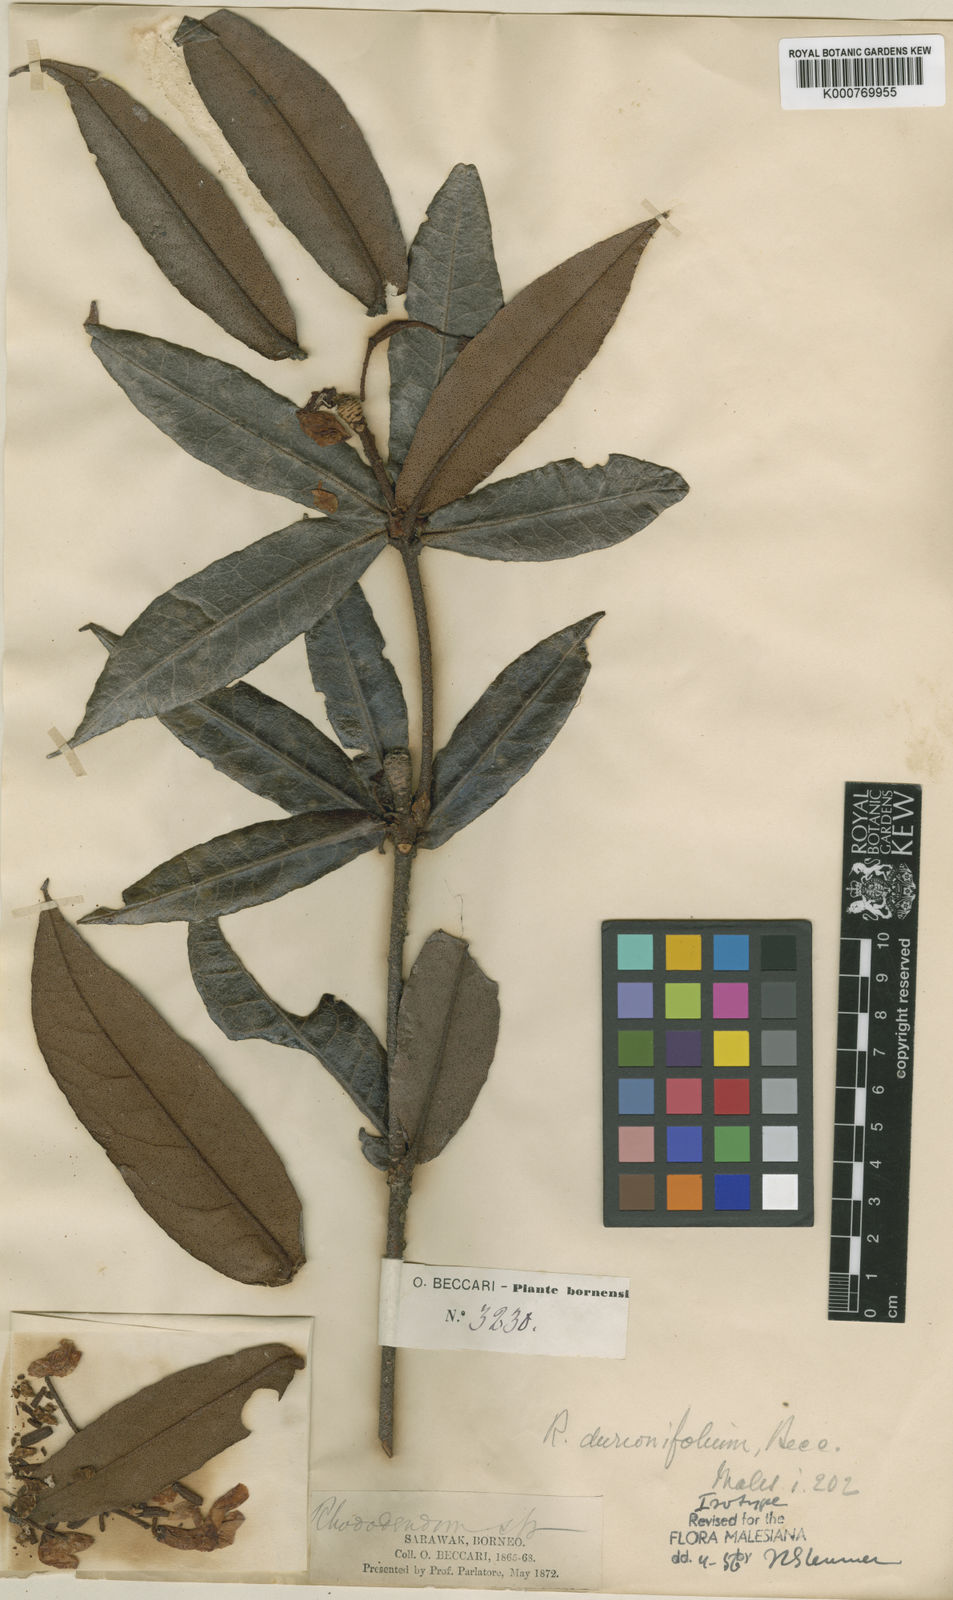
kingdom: Plantae
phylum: Tracheophyta
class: Magnoliopsida
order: Ericales
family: Ericaceae
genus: Rhododendron
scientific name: Rhododendron durionifolium
